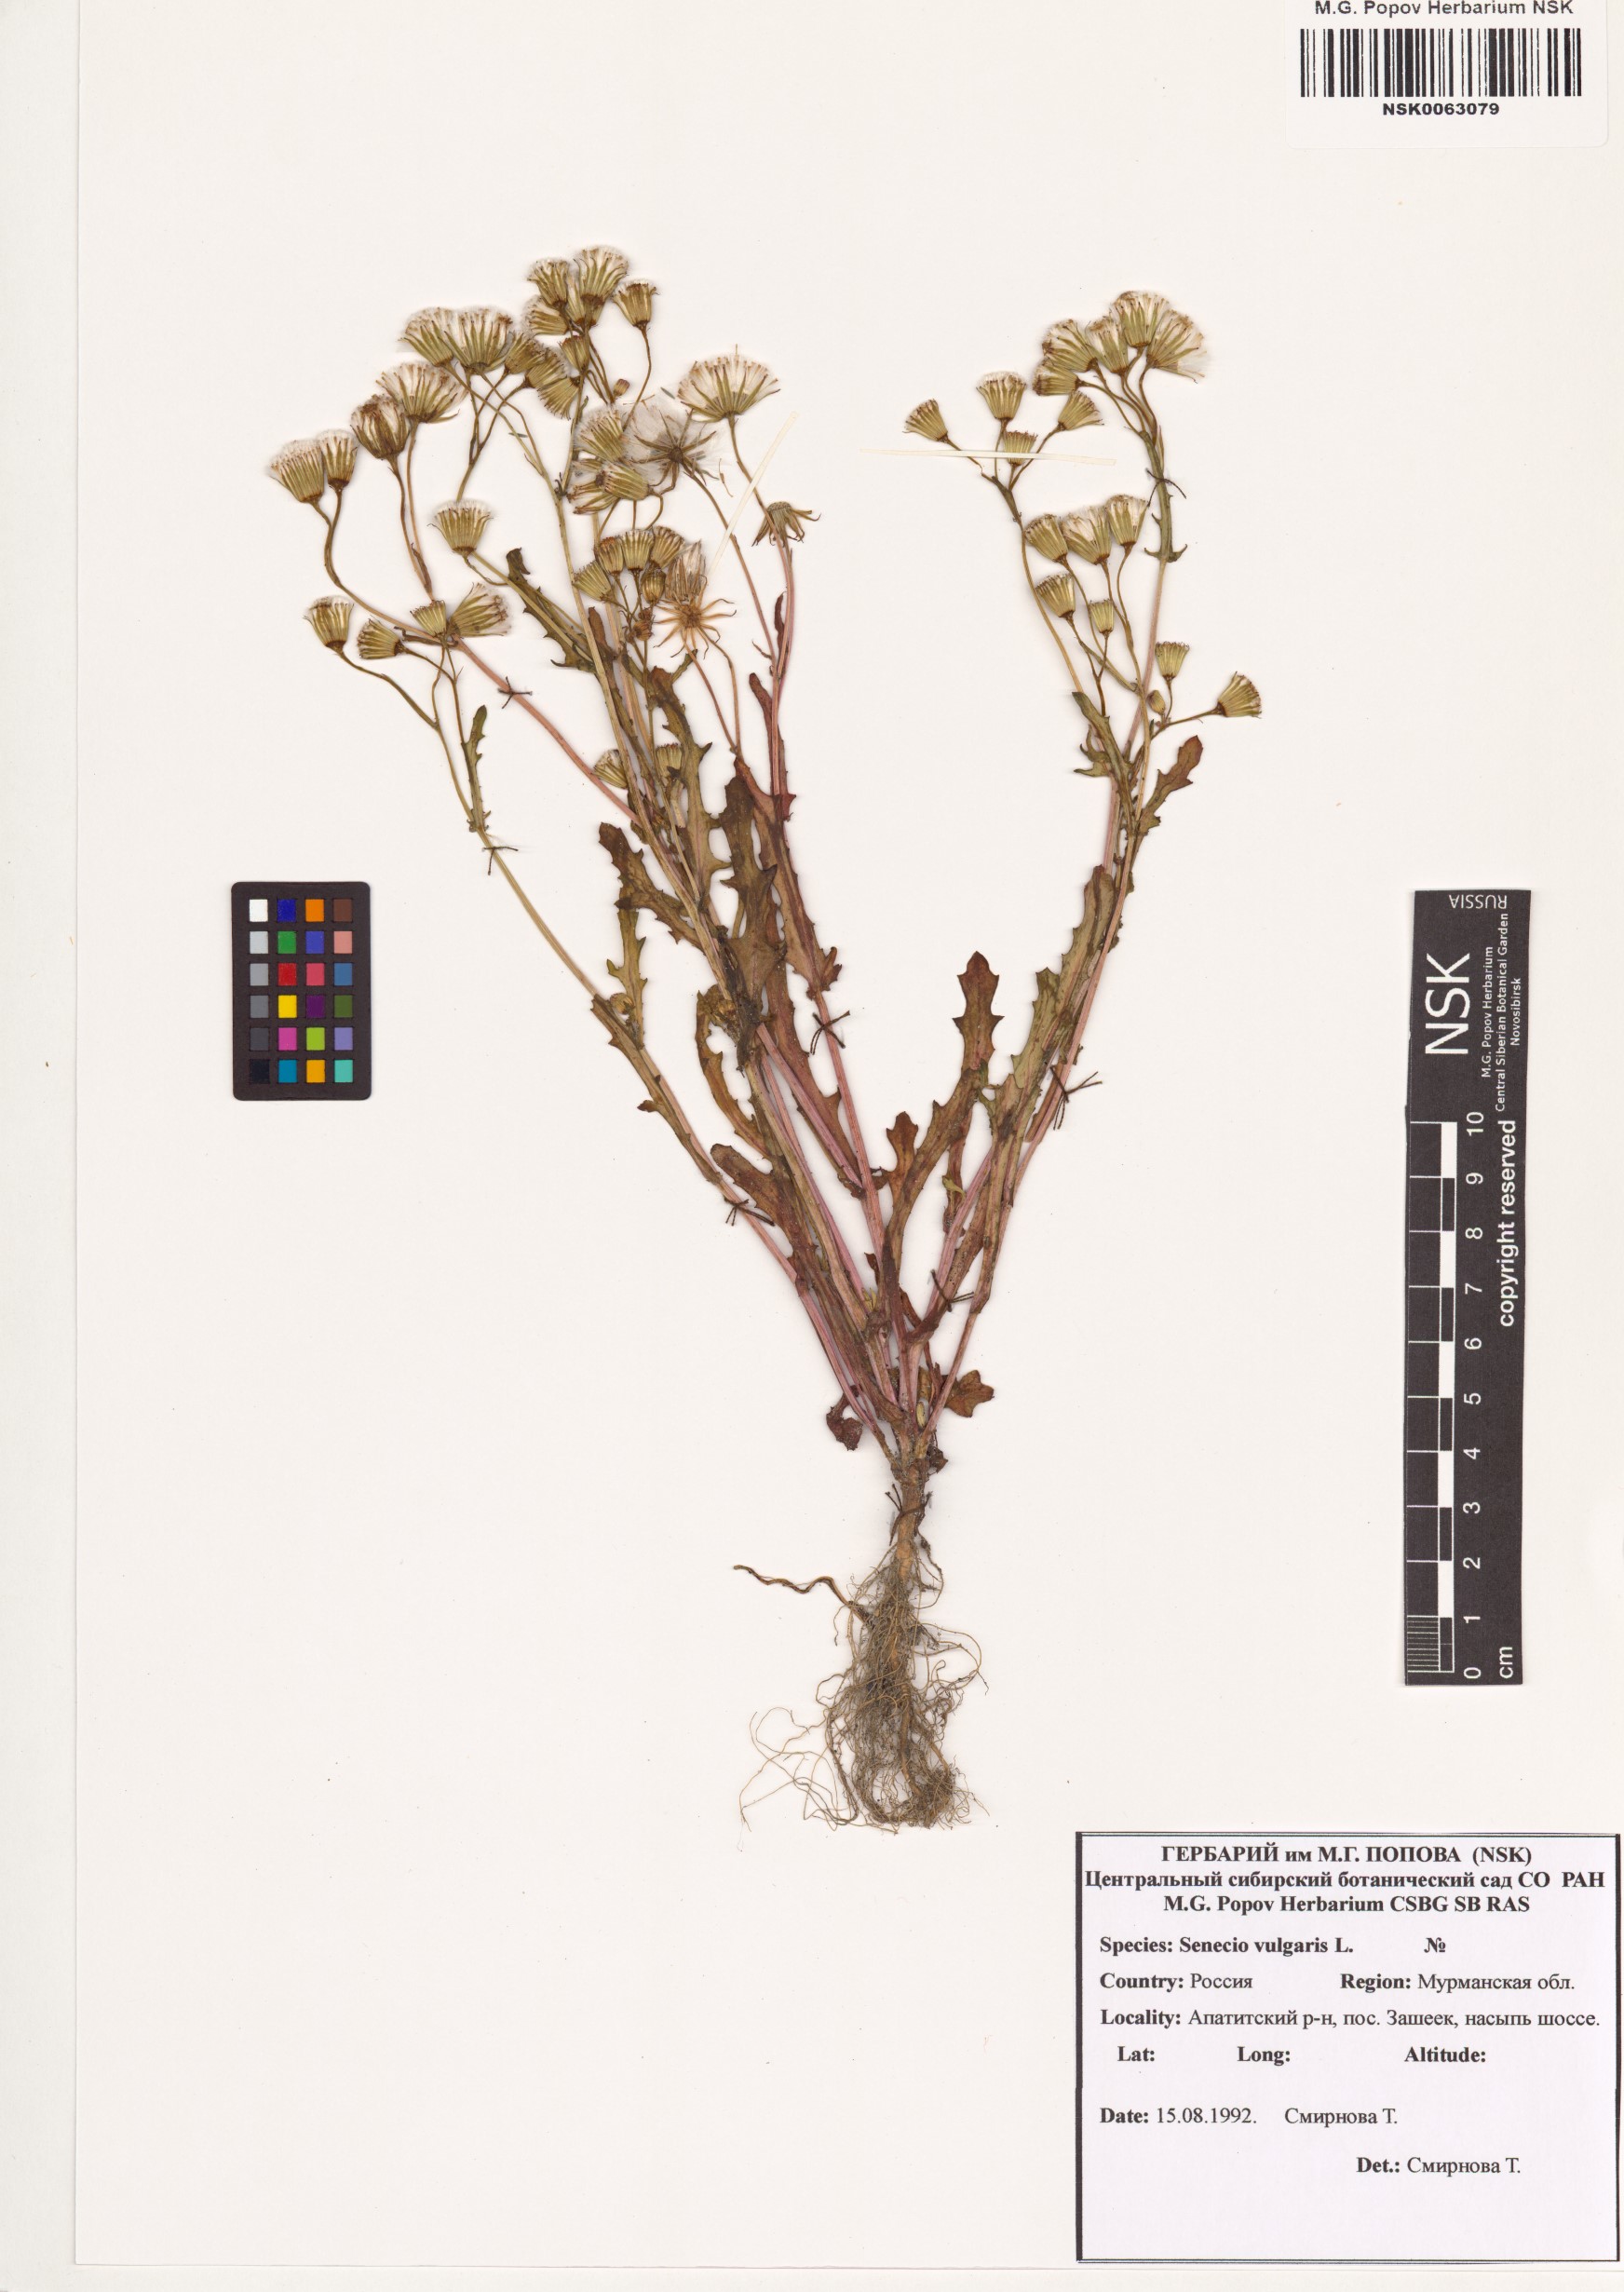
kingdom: Plantae
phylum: Tracheophyta
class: Magnoliopsida
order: Asterales
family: Asteraceae
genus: Senecio
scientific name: Senecio vulgaris
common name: Old-man-in-the-spring
